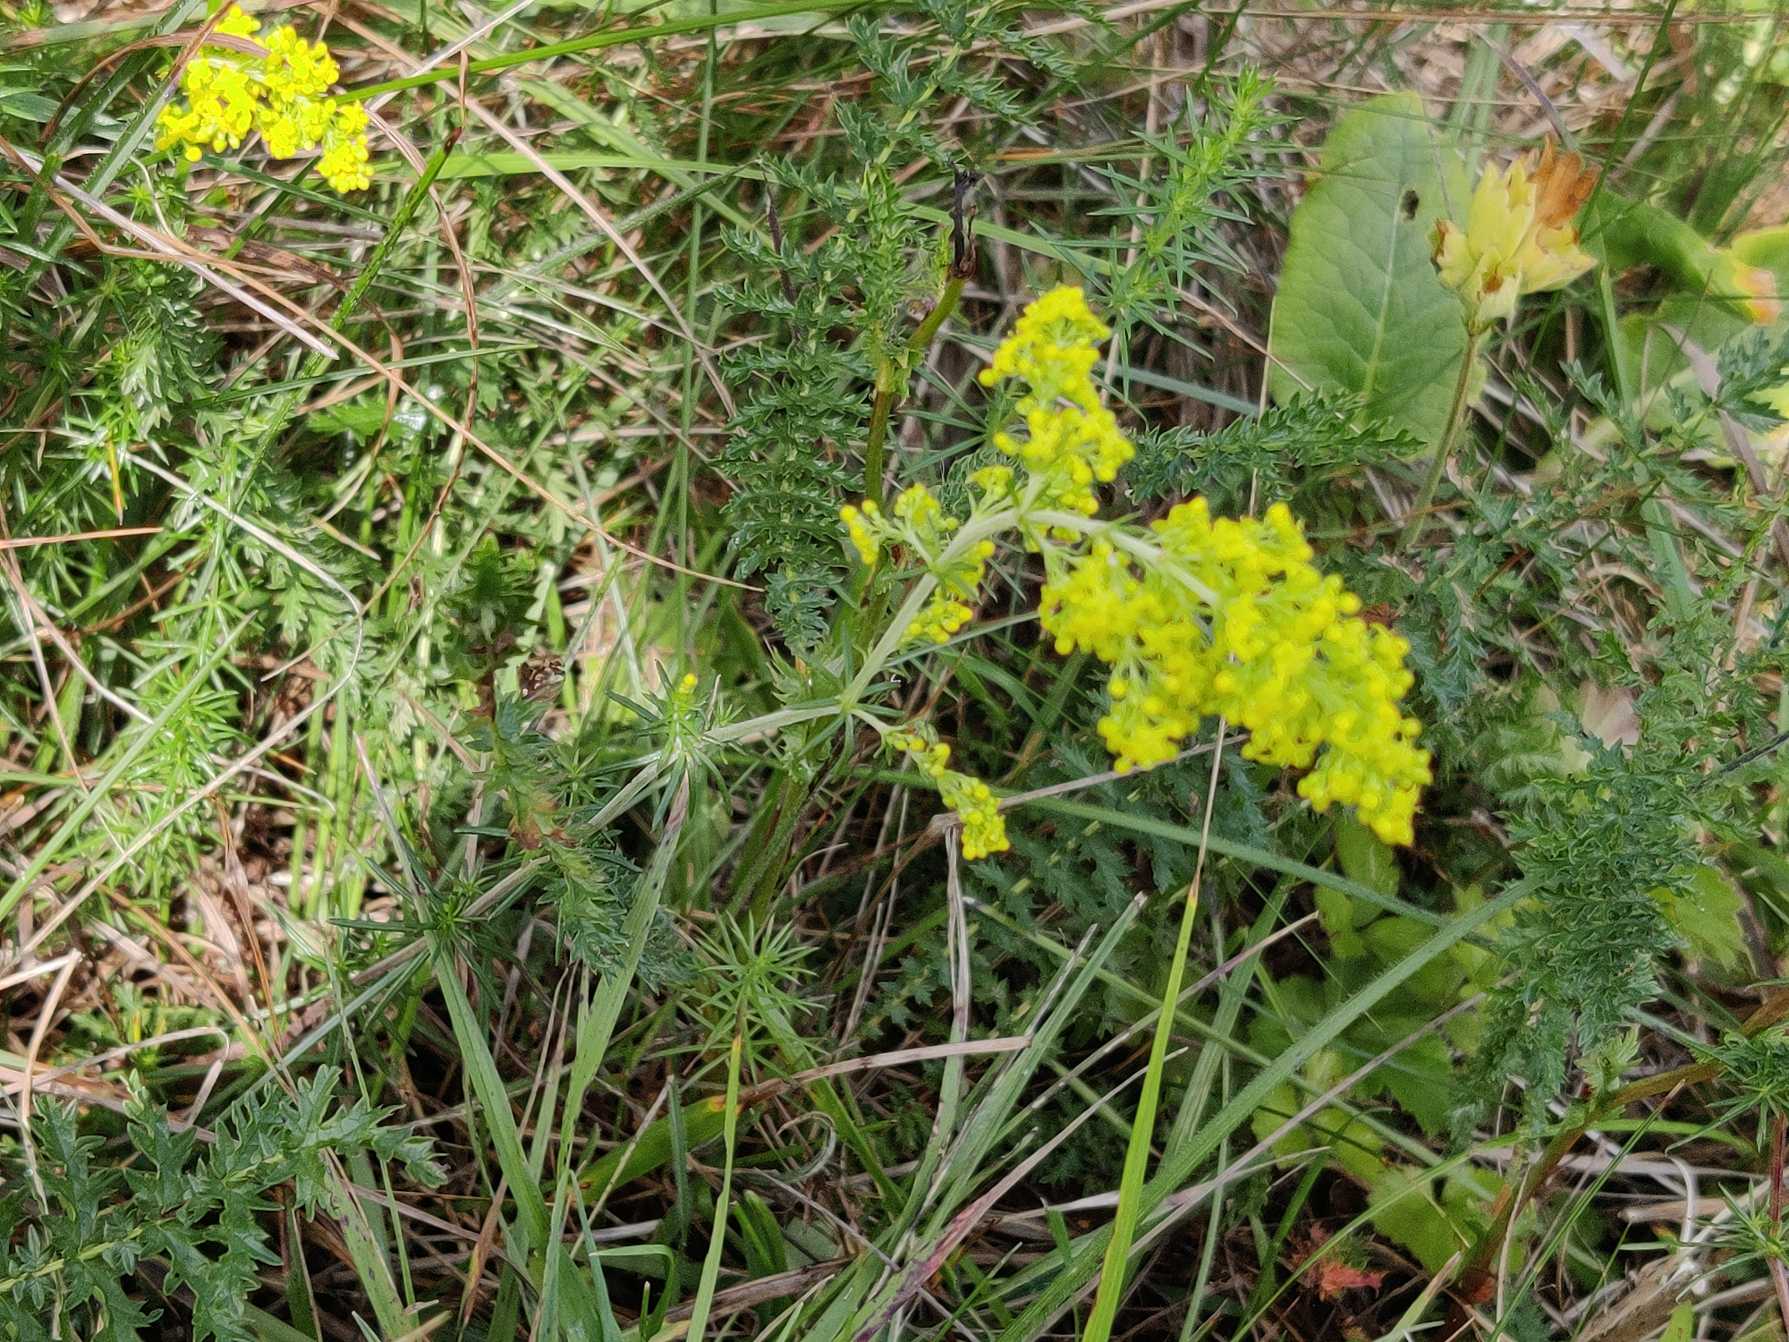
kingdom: Plantae
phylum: Tracheophyta
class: Magnoliopsida
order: Gentianales
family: Rubiaceae
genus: Galium
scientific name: Galium verum
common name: Gul snerre
